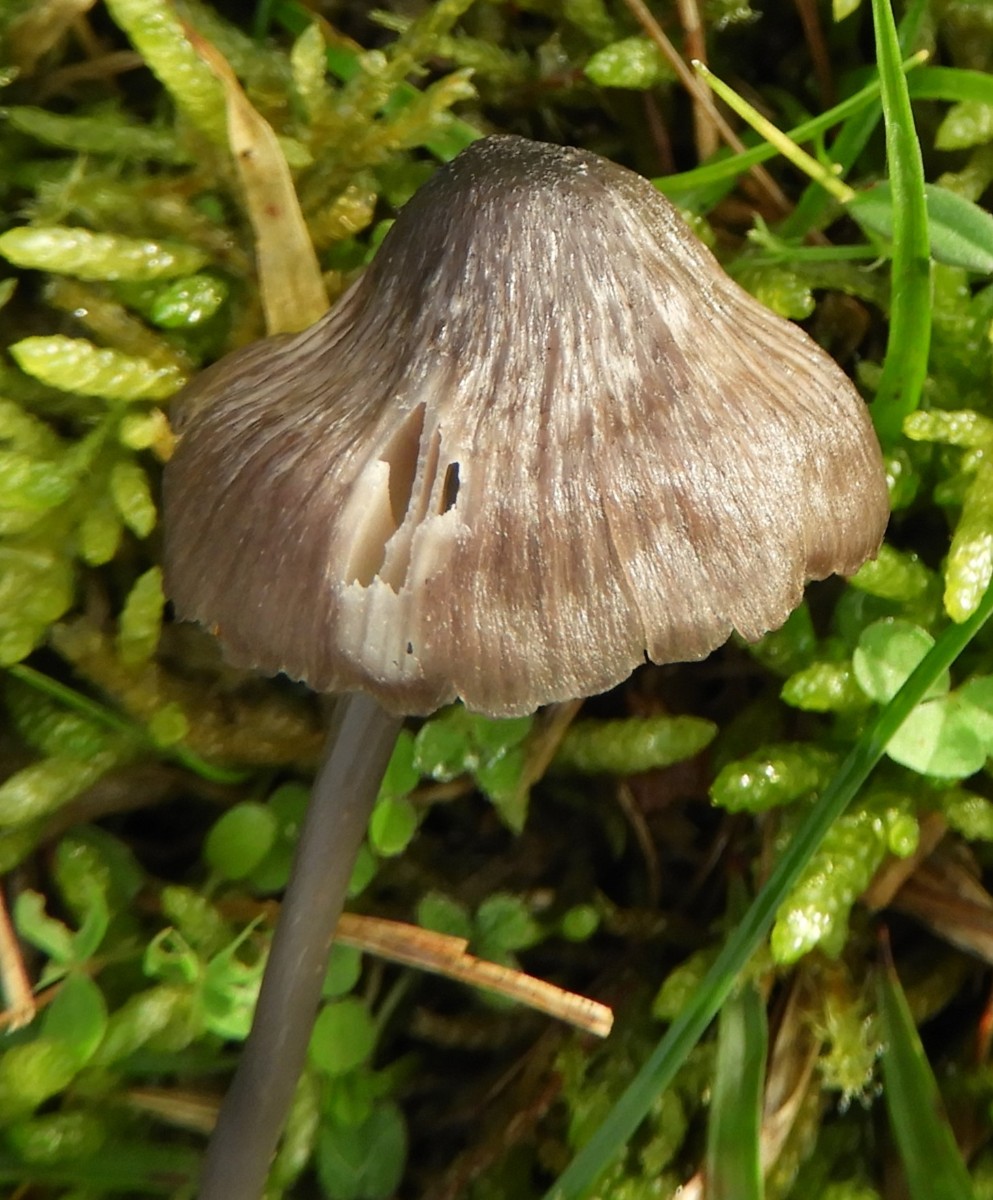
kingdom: Fungi
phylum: Basidiomycota
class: Agaricomycetes
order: Agaricales
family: Entolomataceae
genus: Entoloma
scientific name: Entoloma
